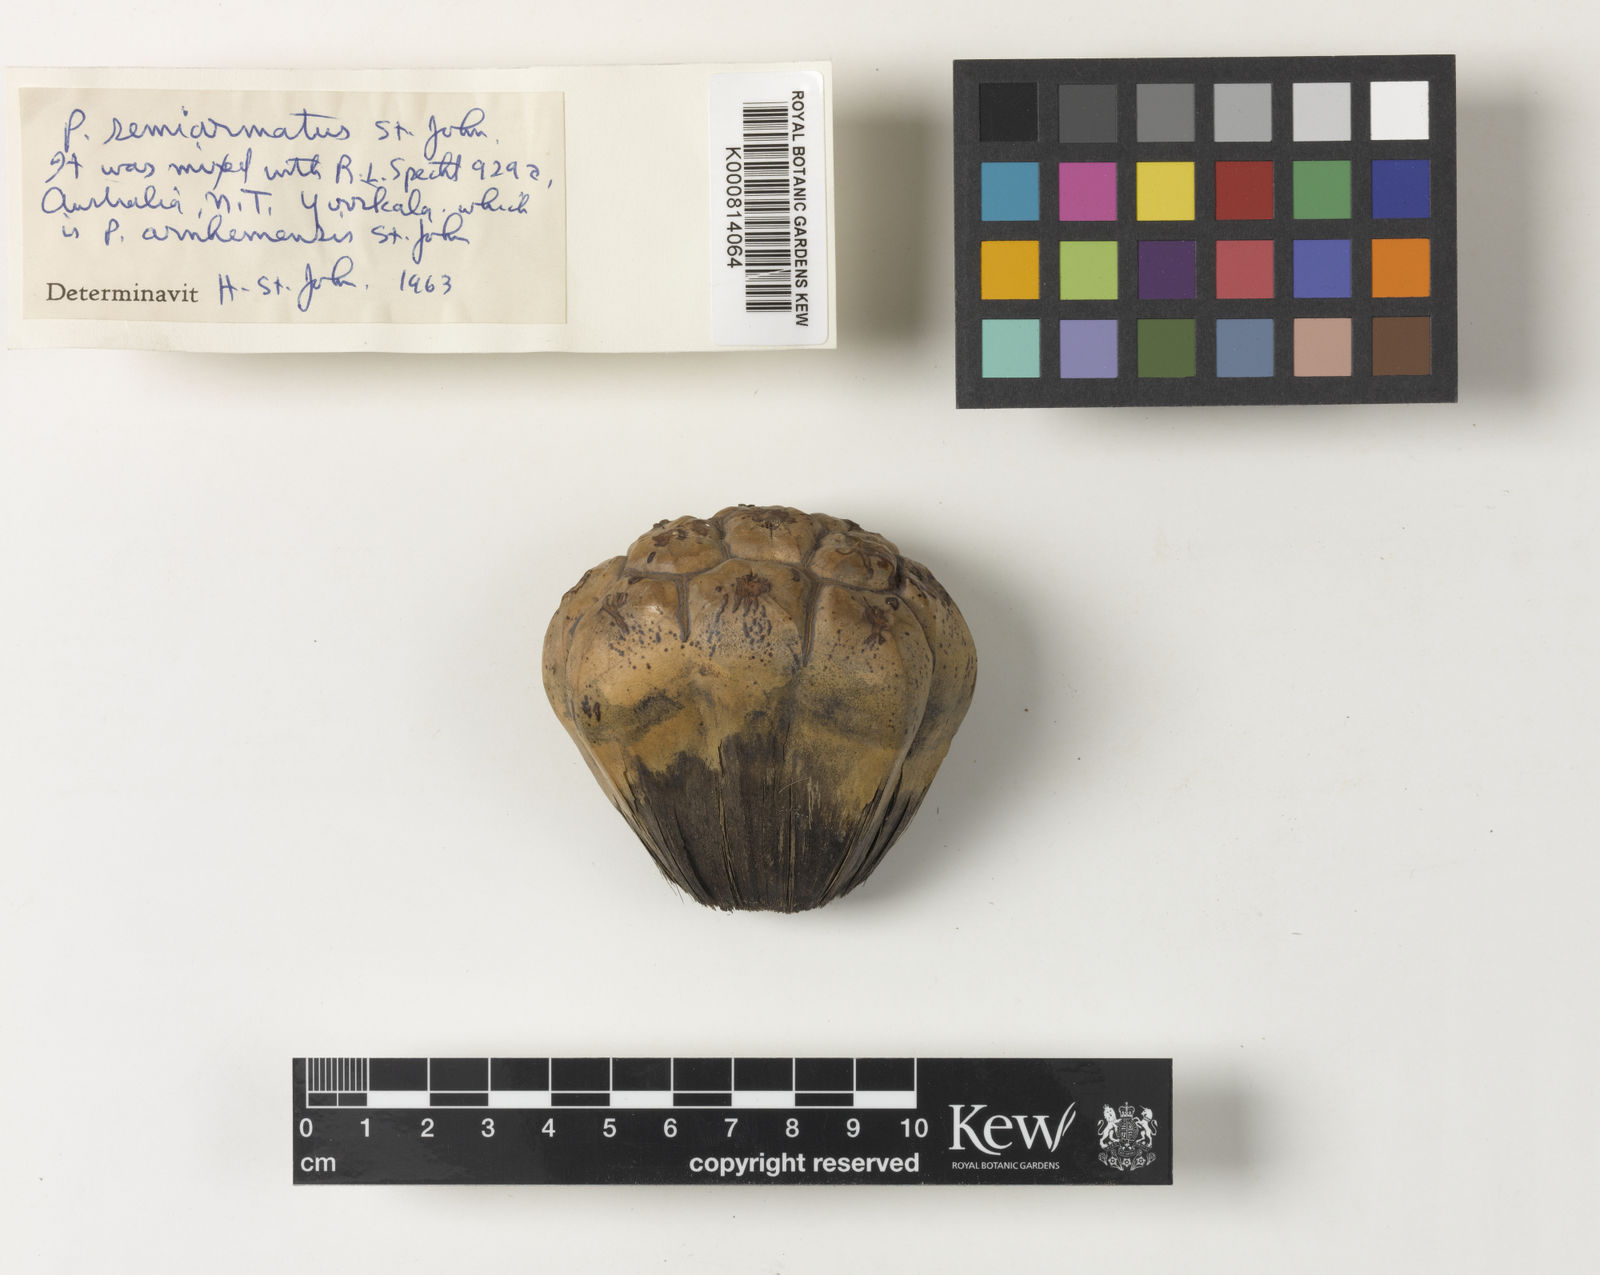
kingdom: Plantae
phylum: Tracheophyta
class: Liliopsida
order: Pandanales
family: Pandanaceae
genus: Pandanus
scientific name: Pandanus semiarmatus
